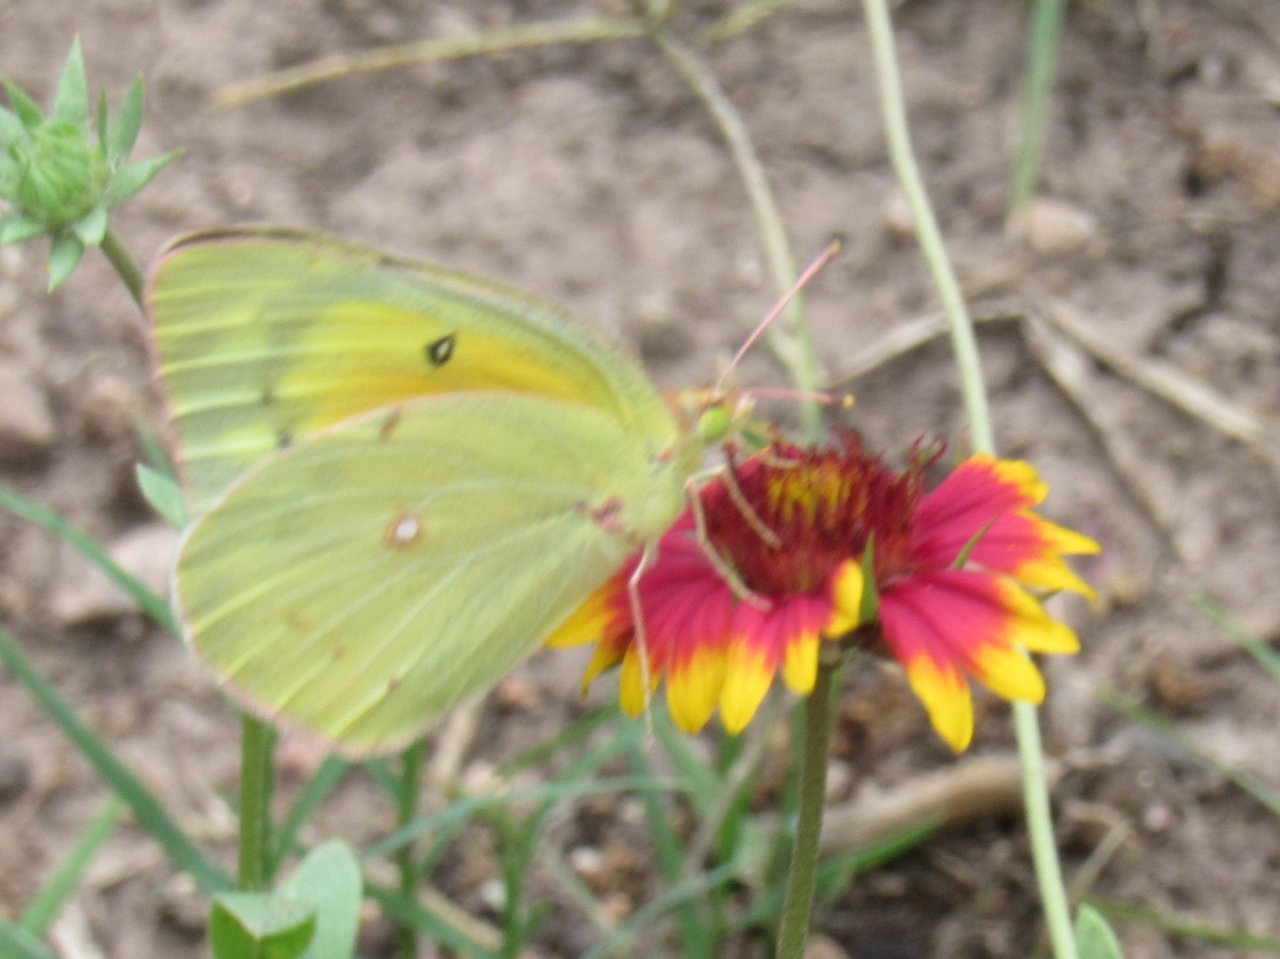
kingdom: Animalia
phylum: Arthropoda
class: Insecta
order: Lepidoptera
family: Pieridae
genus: Colias
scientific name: Colias eurytheme
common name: Orange Sulphur
